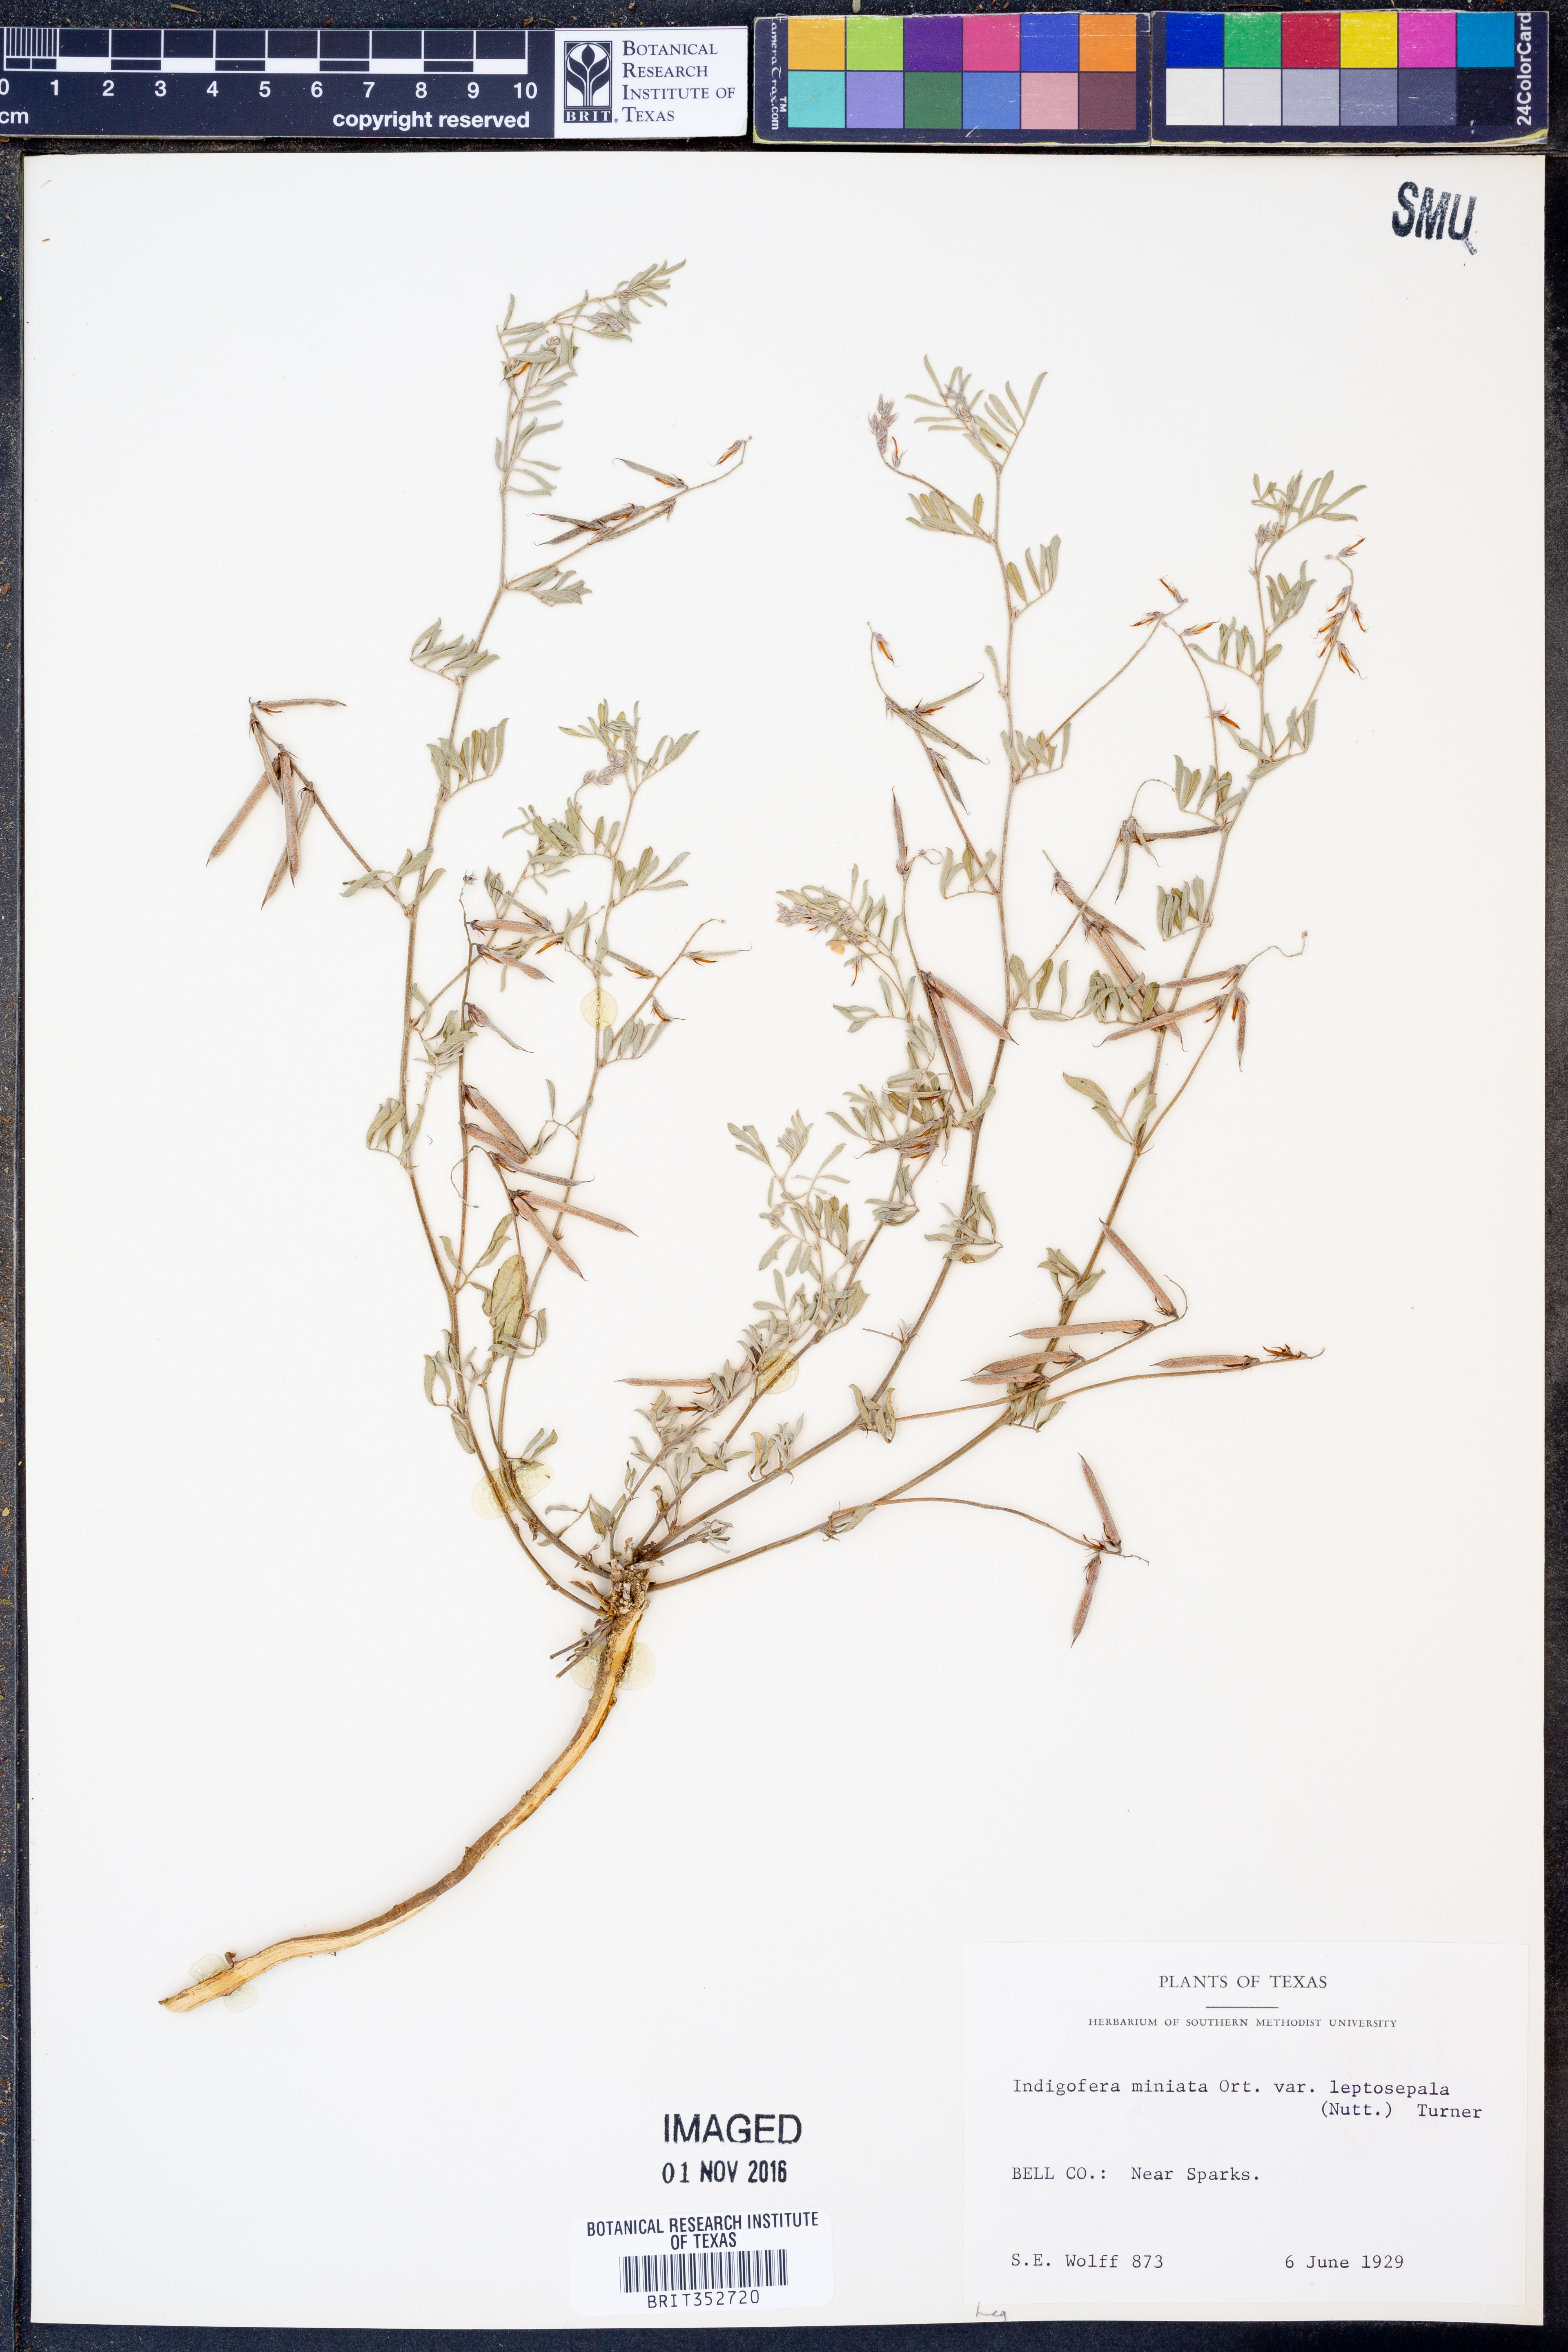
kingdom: Plantae
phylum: Tracheophyta
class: Magnoliopsida
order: Fabales
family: Fabaceae
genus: Indigofera
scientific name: Indigofera miniata
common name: Coast indigo
